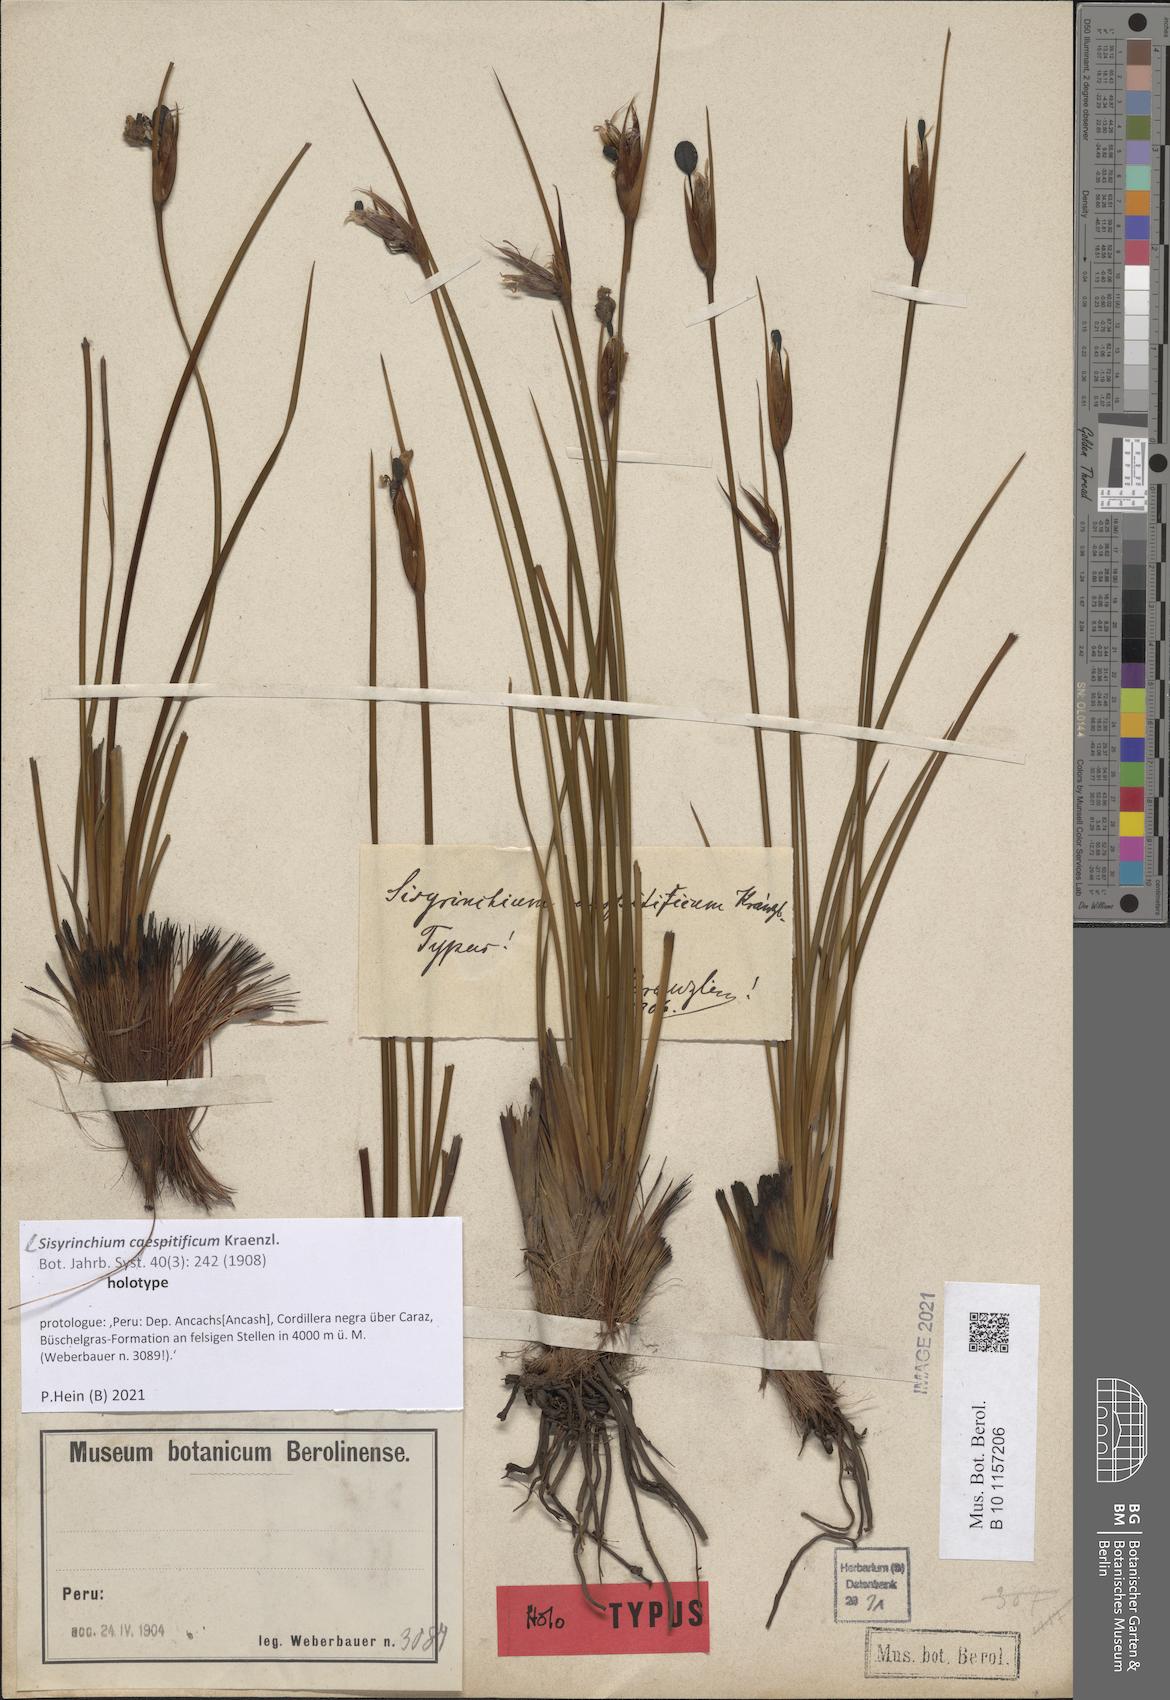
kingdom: Plantae
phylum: Tracheophyta
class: Liliopsida
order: Asparagales
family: Iridaceae
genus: Sisyrinchium
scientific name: Sisyrinchium caespitificum
